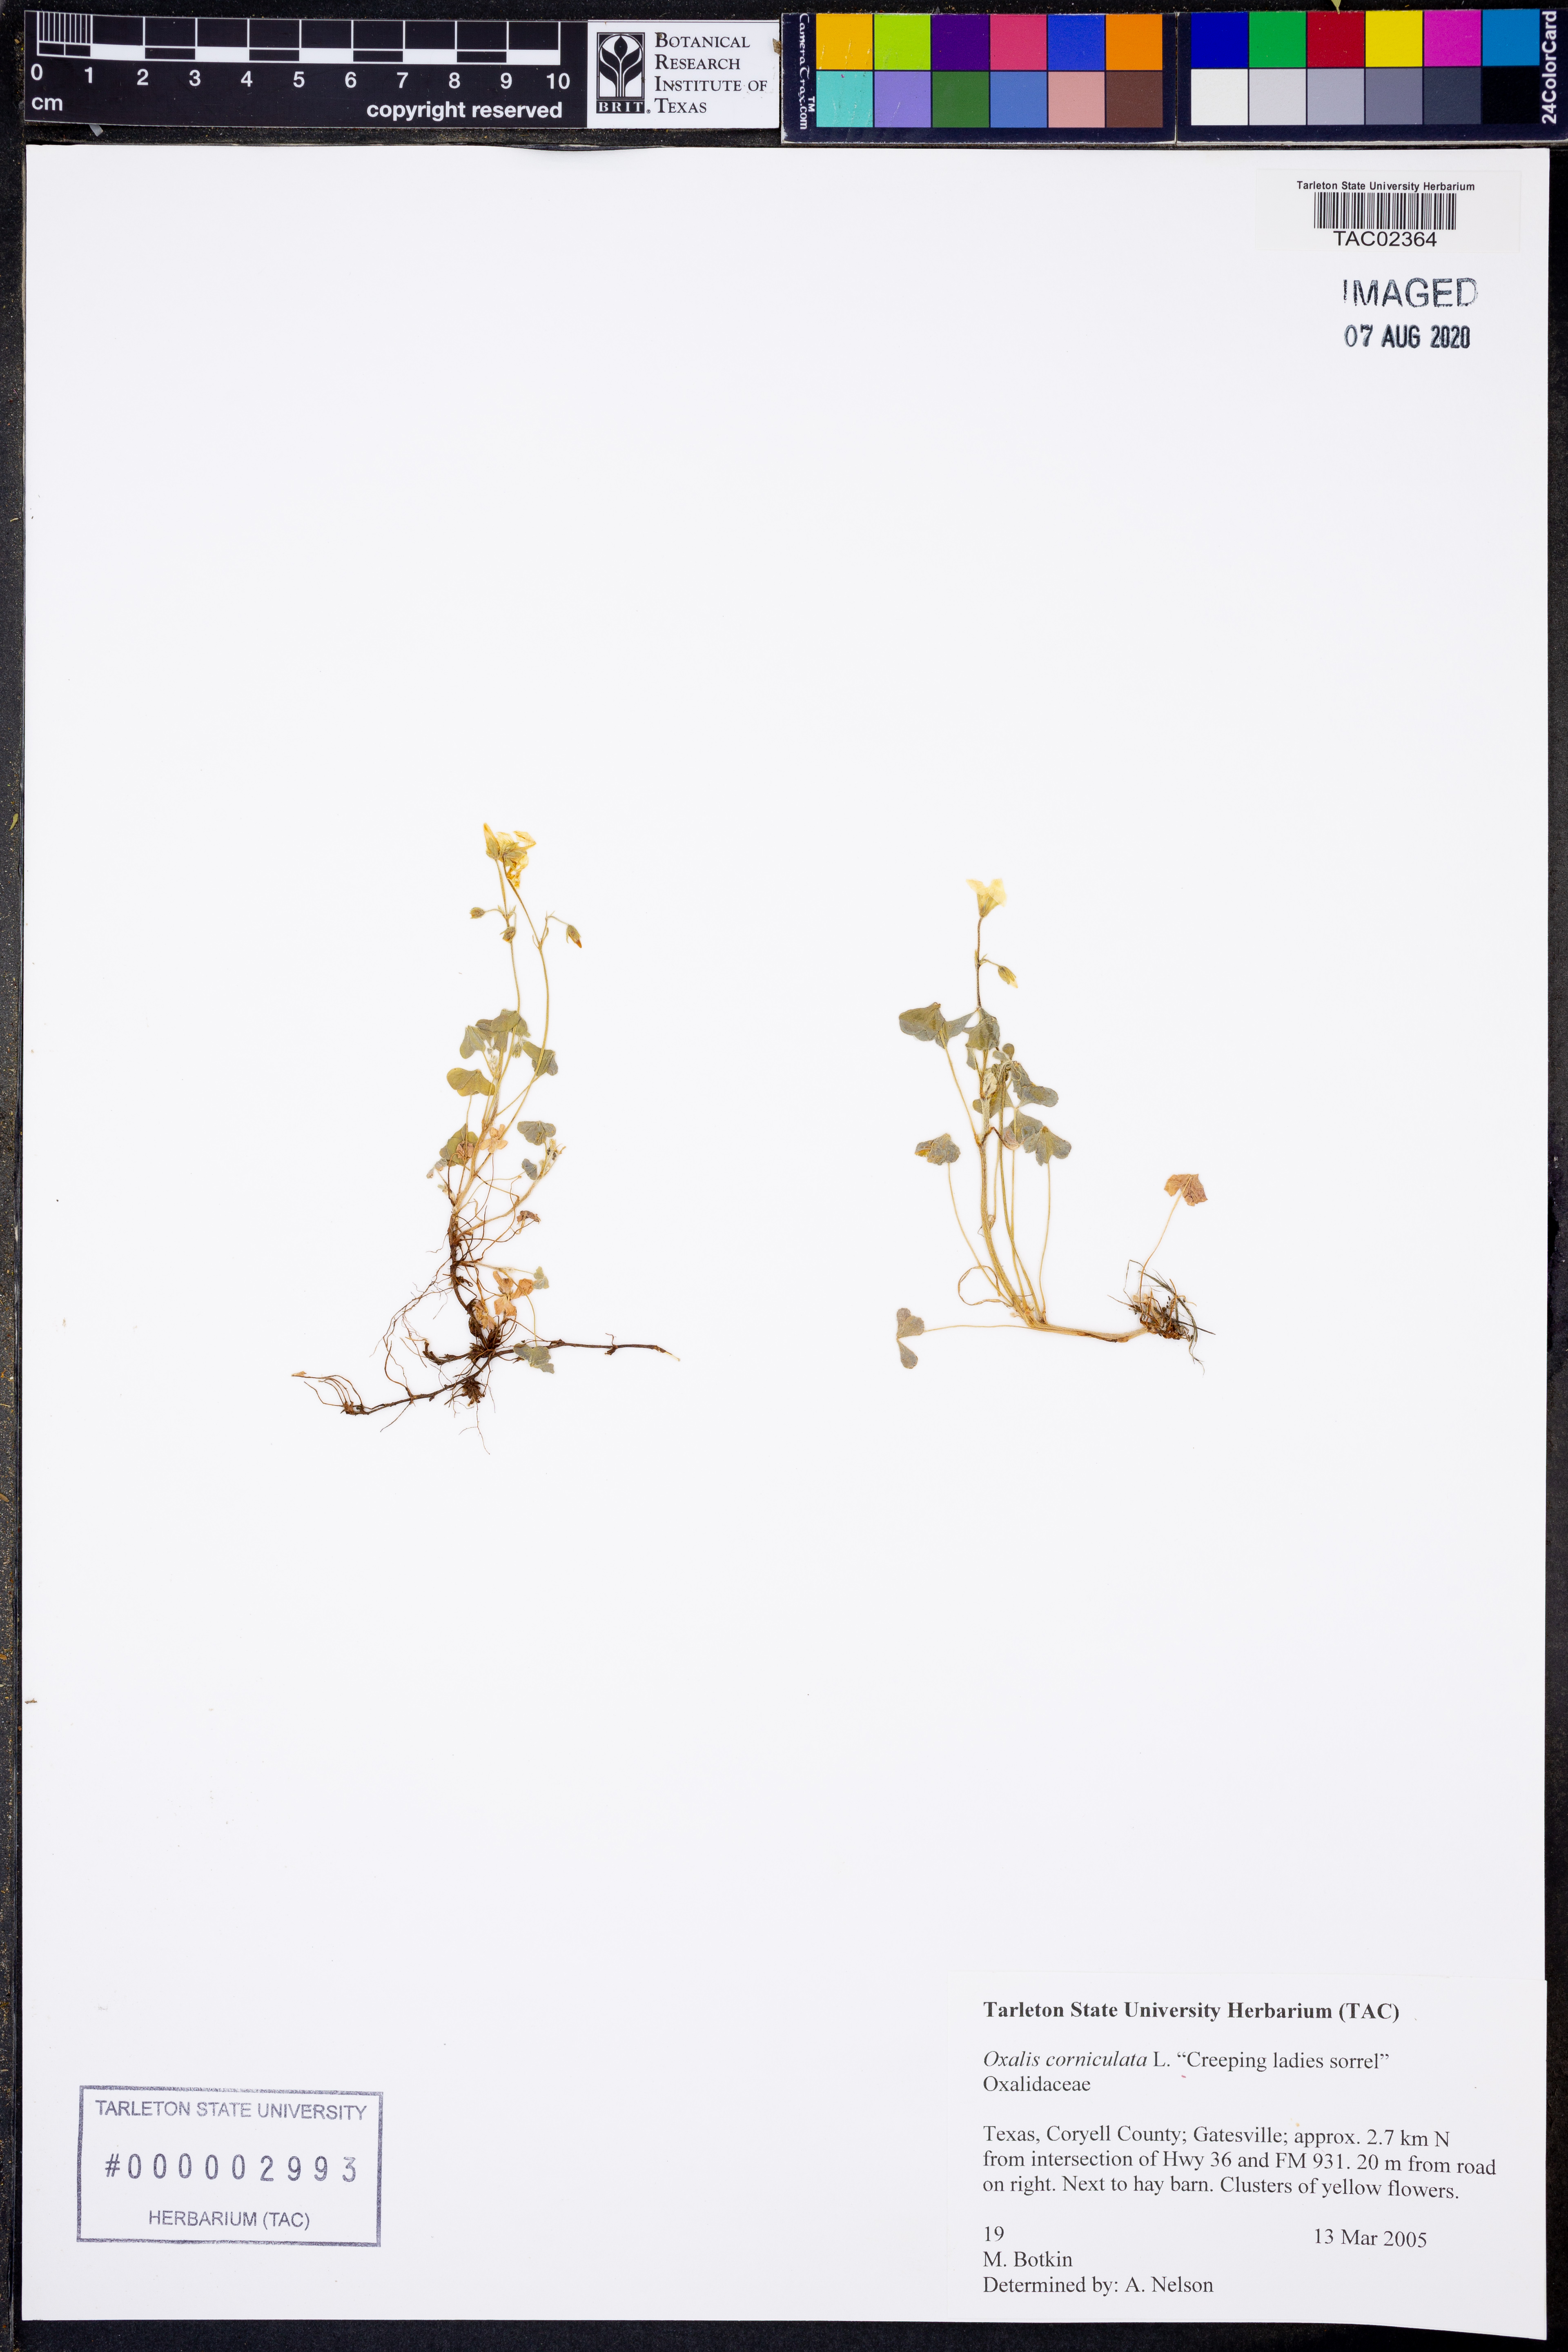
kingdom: Plantae
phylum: Tracheophyta
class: Magnoliopsida
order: Oxalidales
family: Oxalidaceae
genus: Oxalis
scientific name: Oxalis corniculata
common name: Procumbent yellow-sorrel
